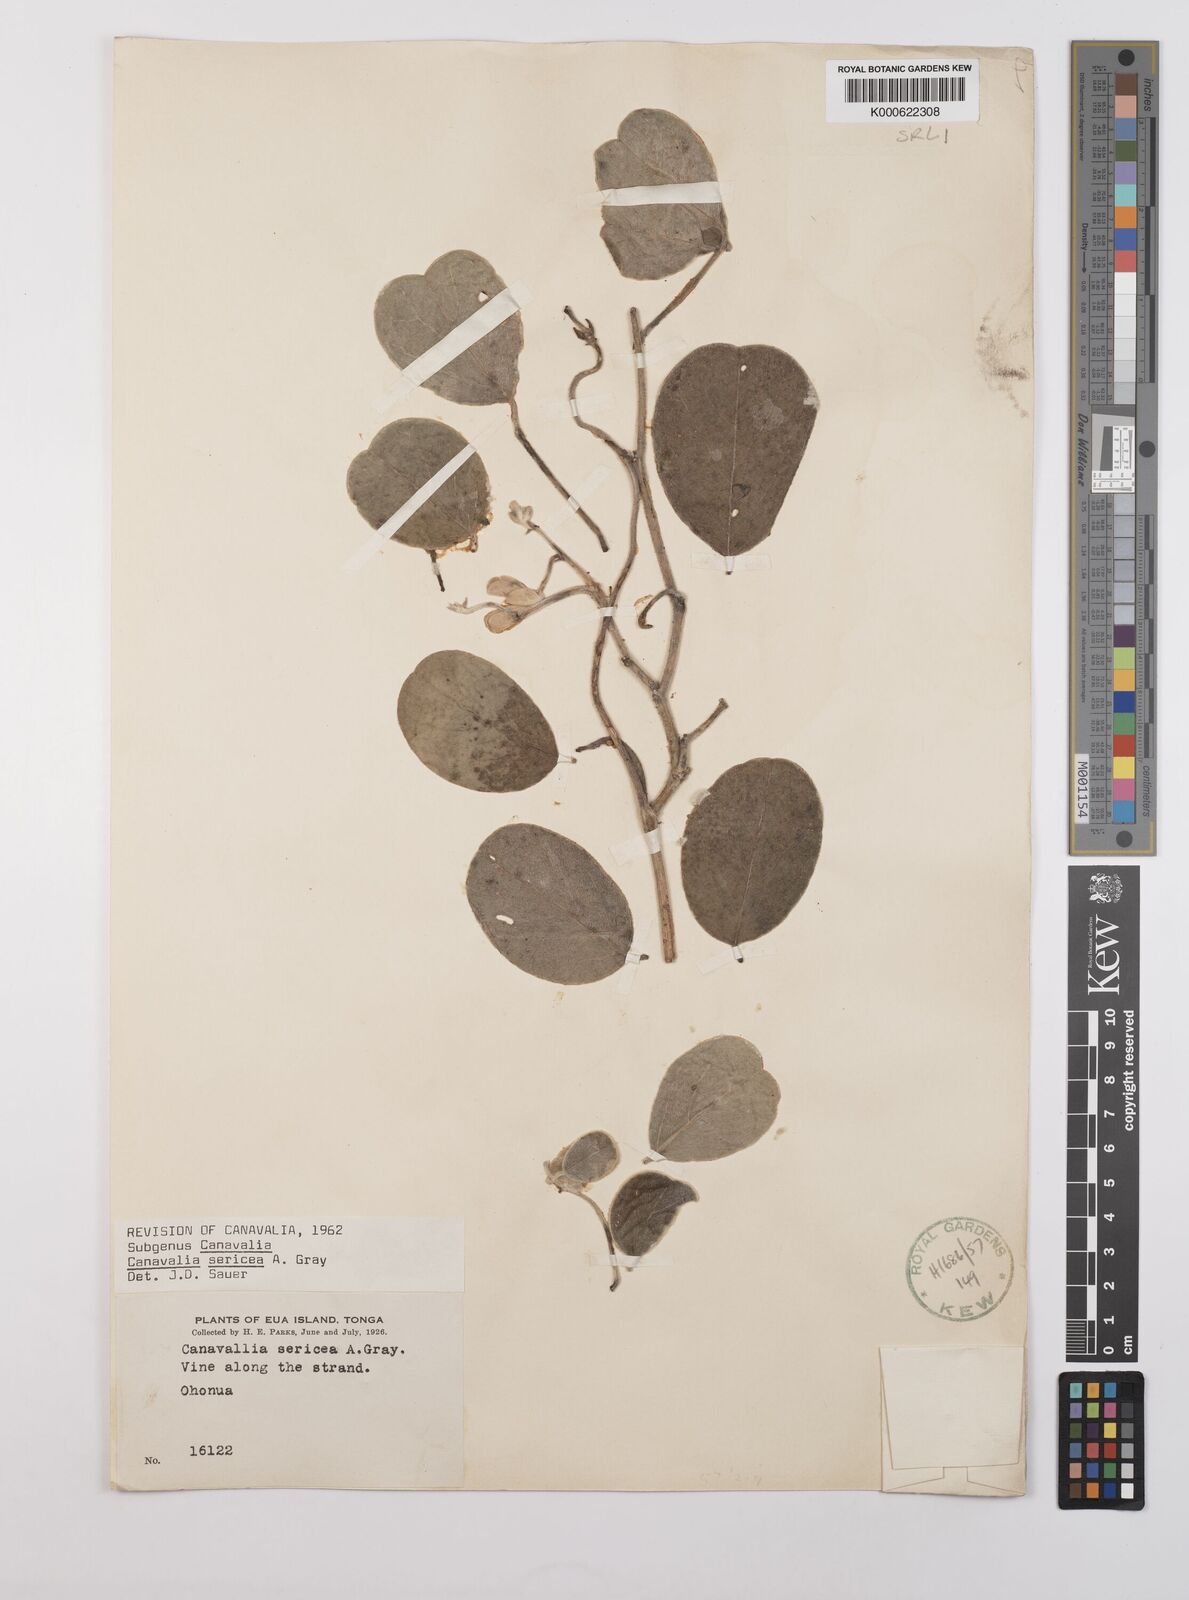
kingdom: Plantae
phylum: Tracheophyta
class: Magnoliopsida
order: Fabales
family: Fabaceae
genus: Canavalia
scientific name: Canavalia sericea
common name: Silky jackbean
